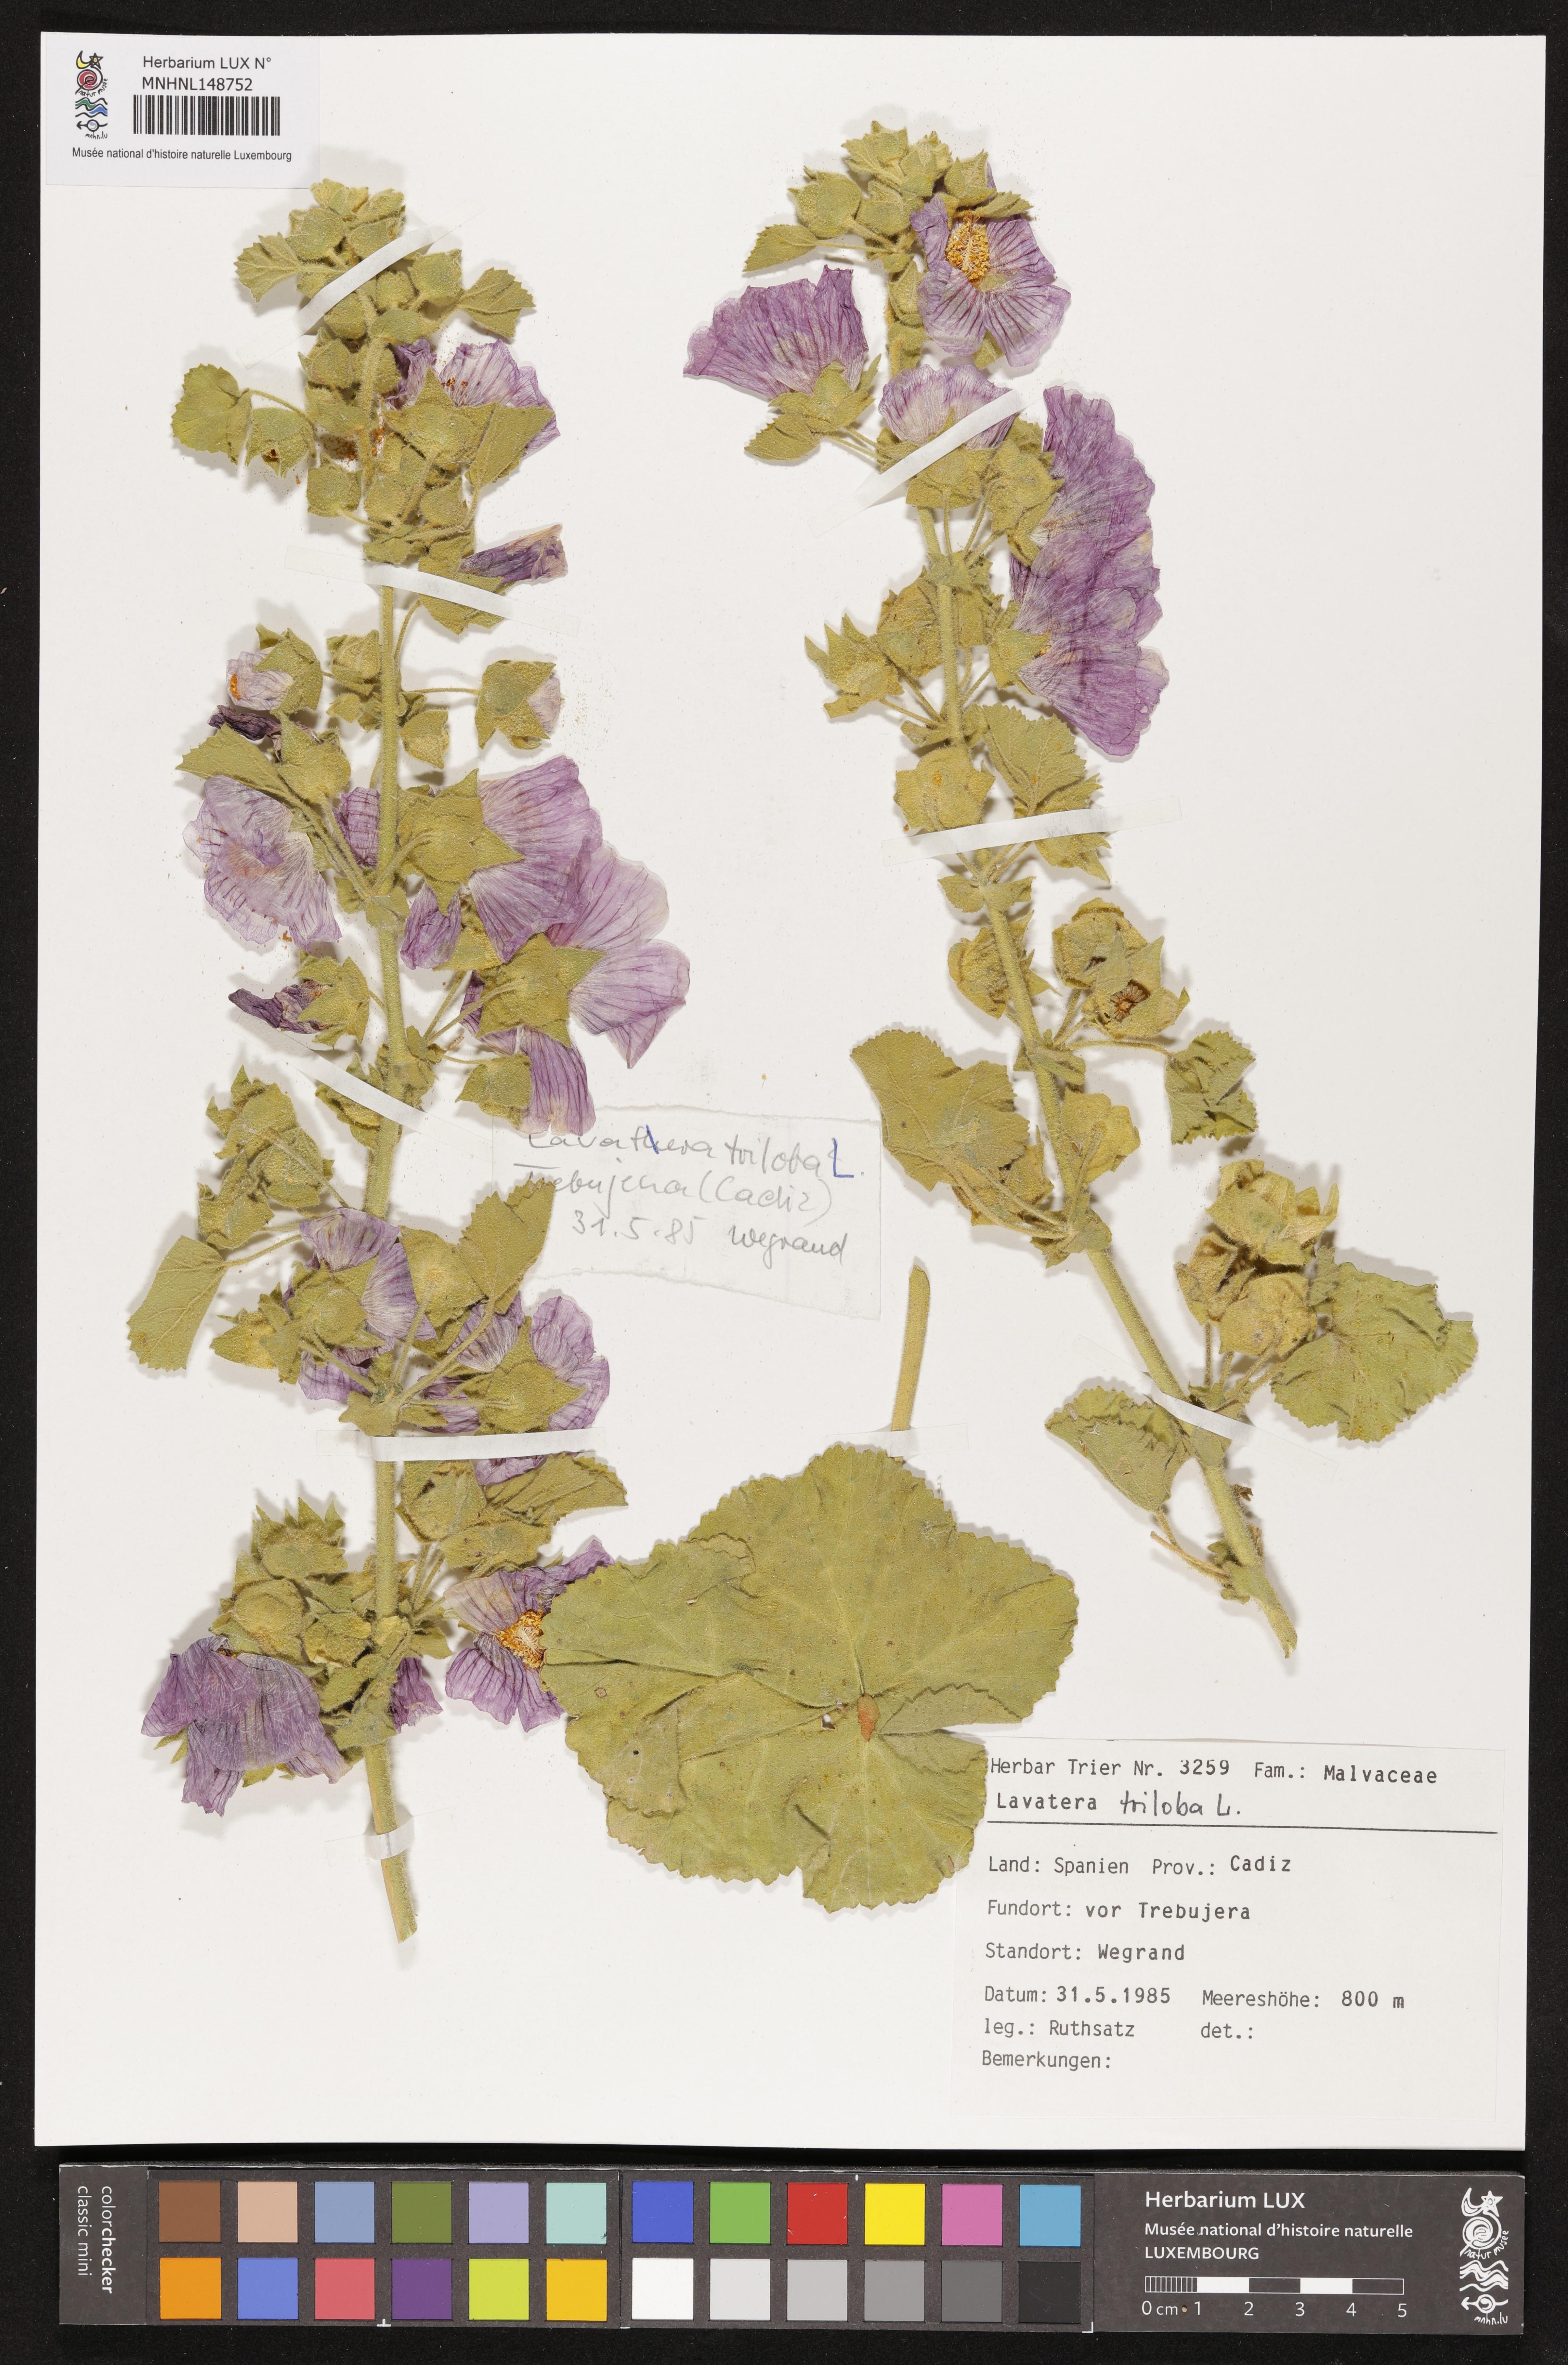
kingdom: Plantae
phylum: Tracheophyta
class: Magnoliopsida
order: Malvales
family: Malvaceae
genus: Malva
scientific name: Malva lusitanica
